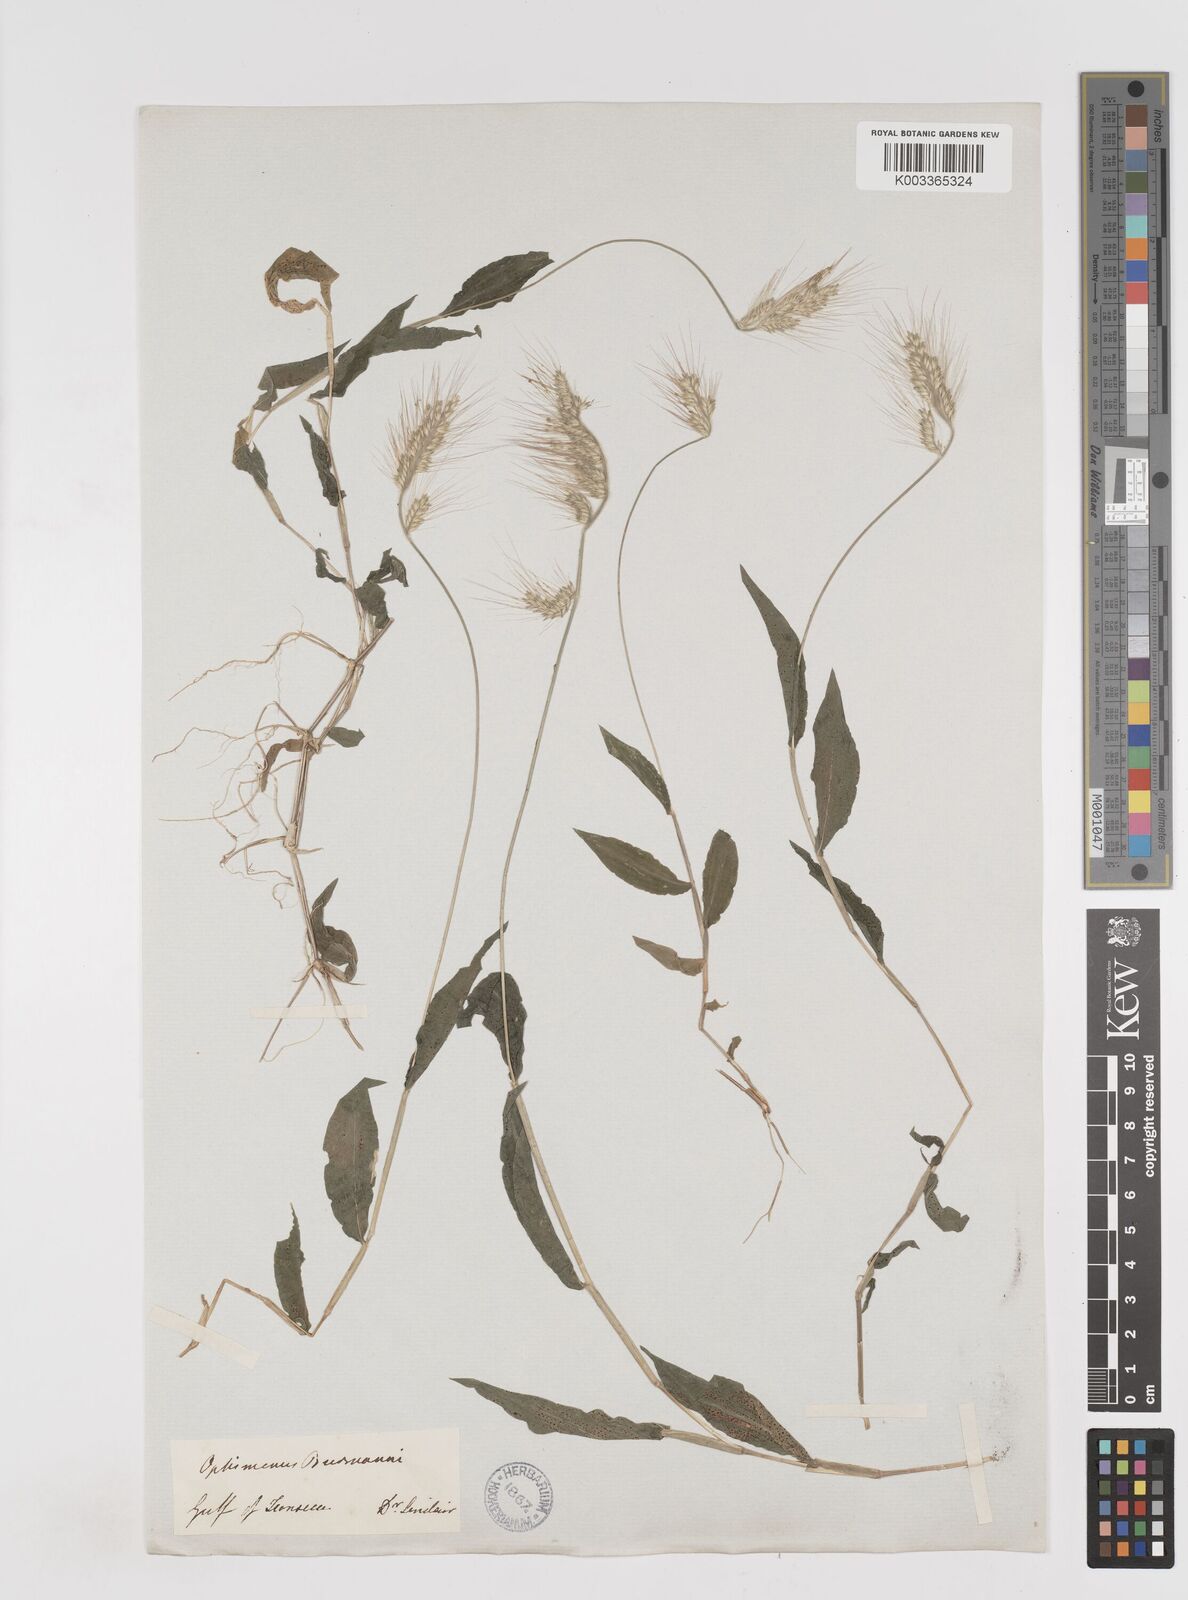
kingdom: Plantae
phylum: Tracheophyta
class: Liliopsida
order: Poales
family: Poaceae
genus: Oplismenus
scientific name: Oplismenus burmanni
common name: Burmann's basketgrass
